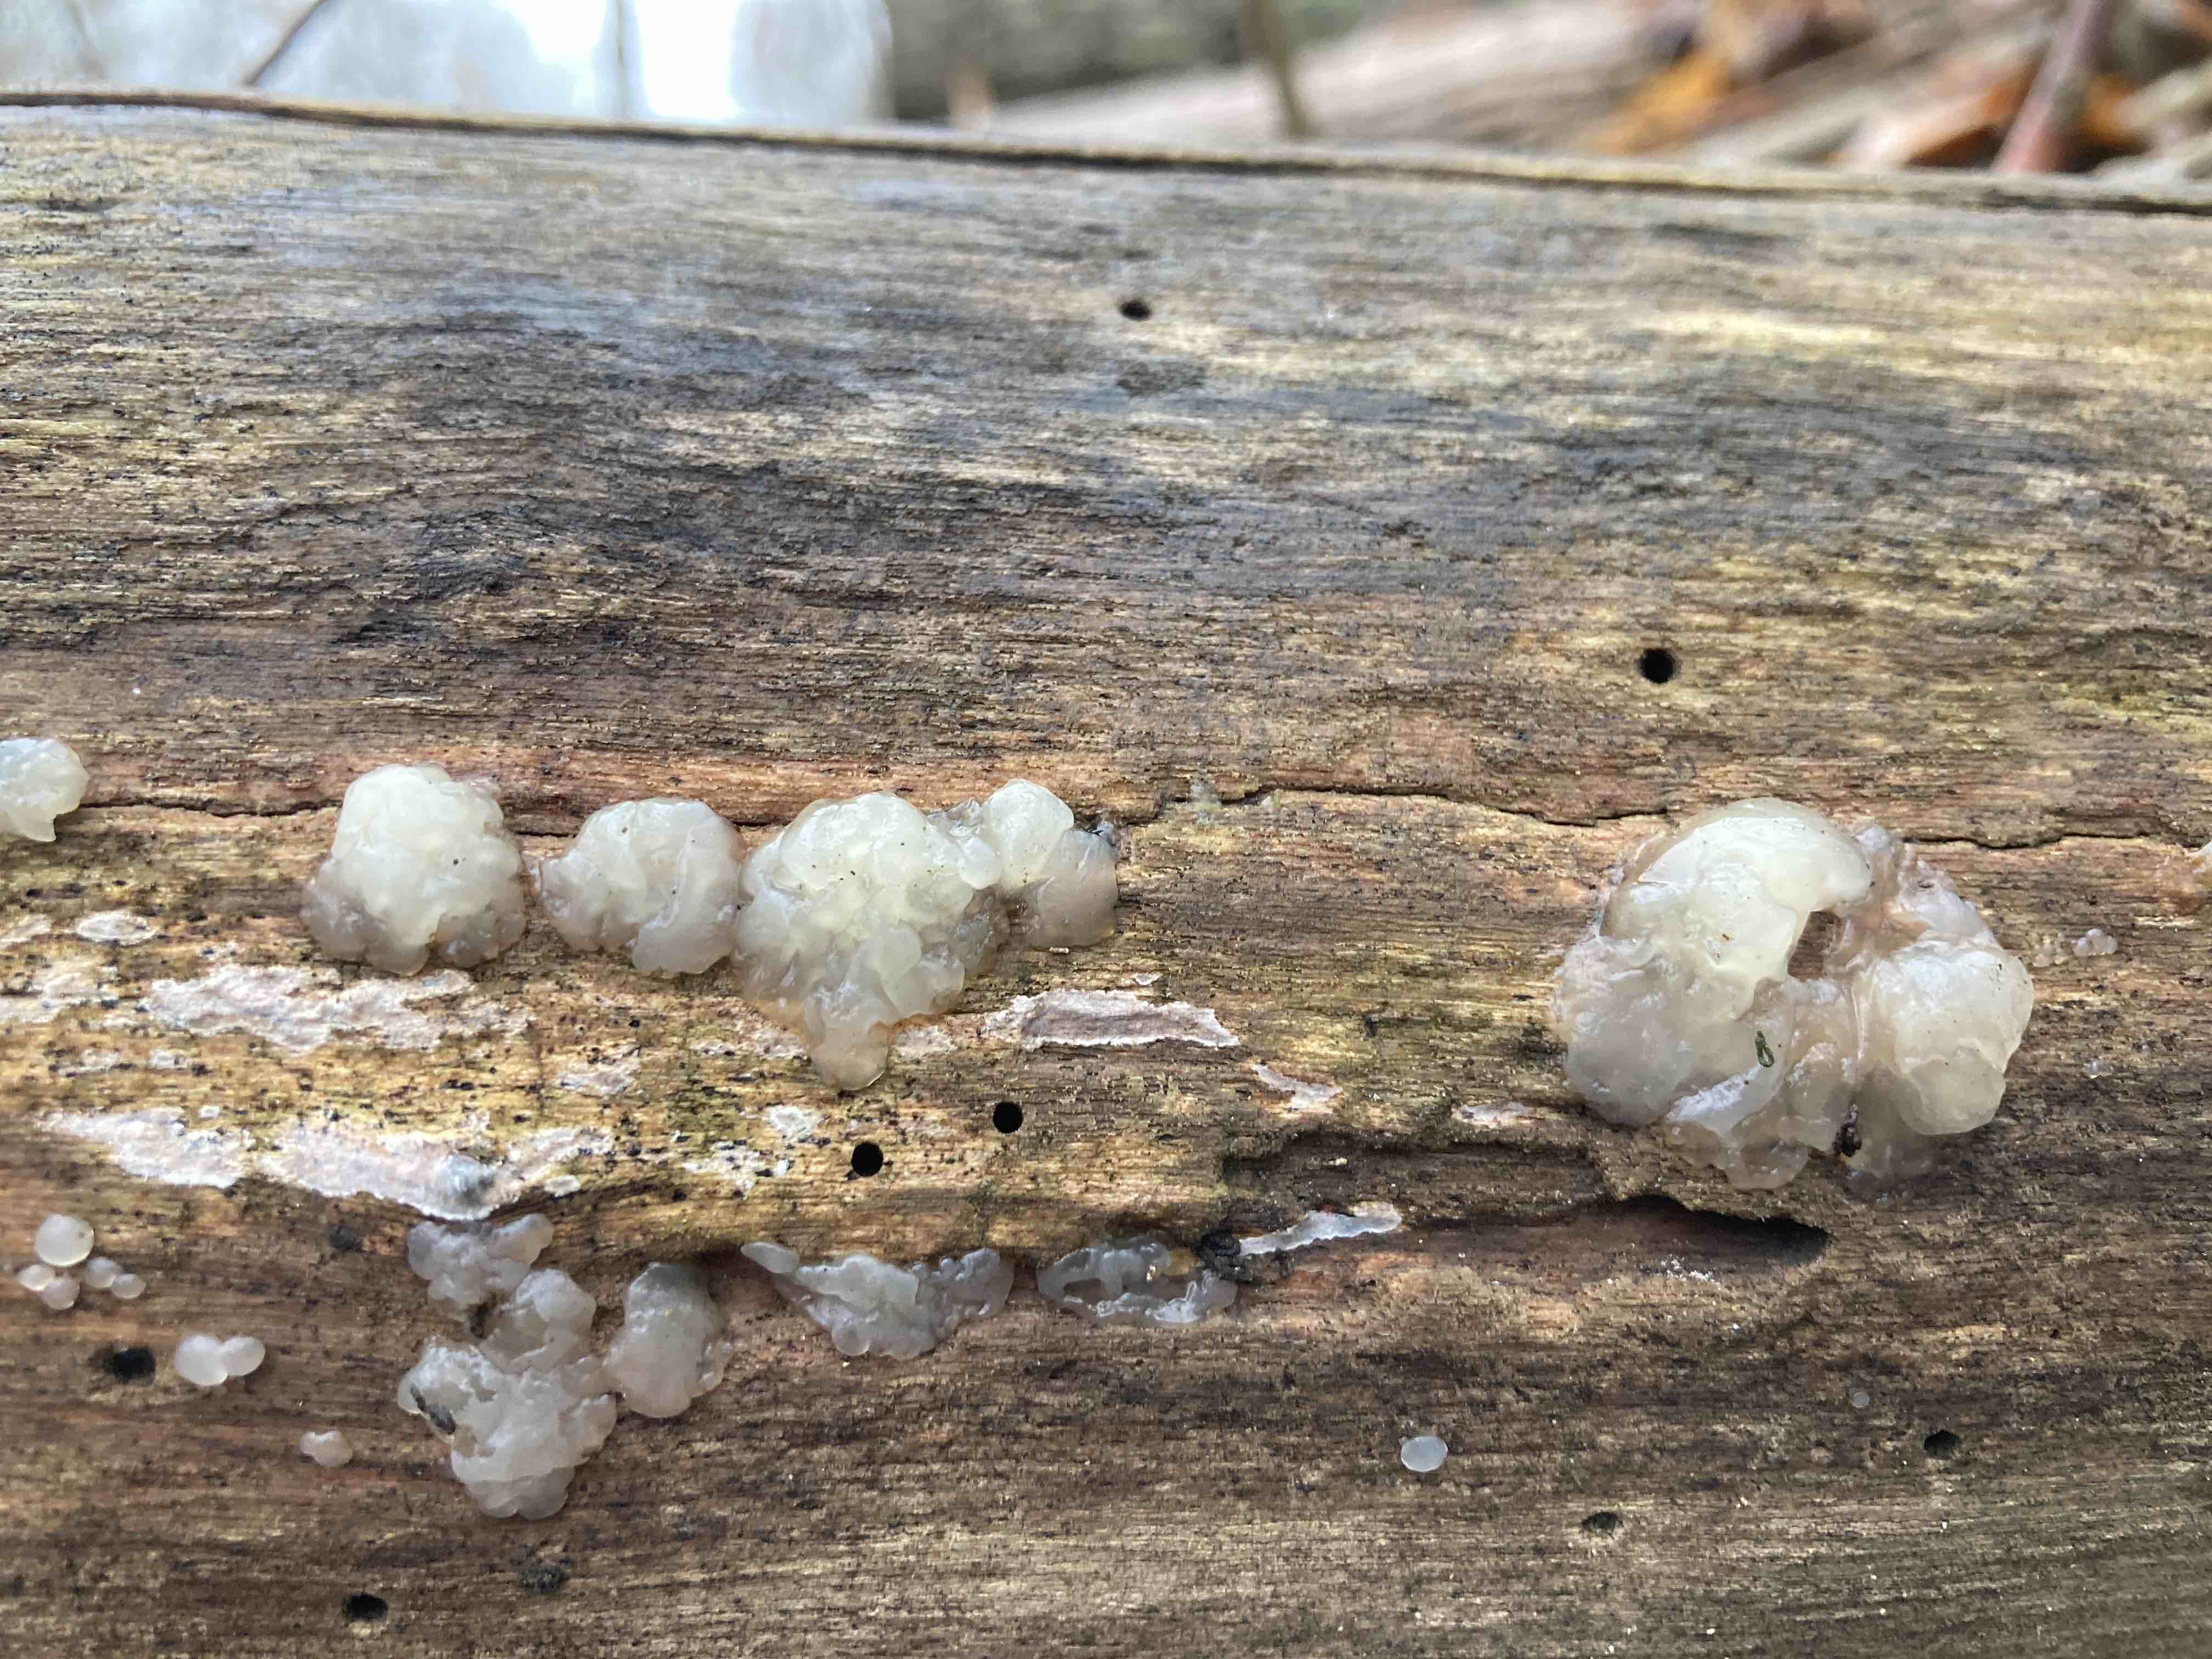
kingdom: Fungi
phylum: Basidiomycota
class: Agaricomycetes
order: Auriculariales
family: Hyaloriaceae
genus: Myxarium
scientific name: Myxarium nucleatum
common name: klar bævretop
